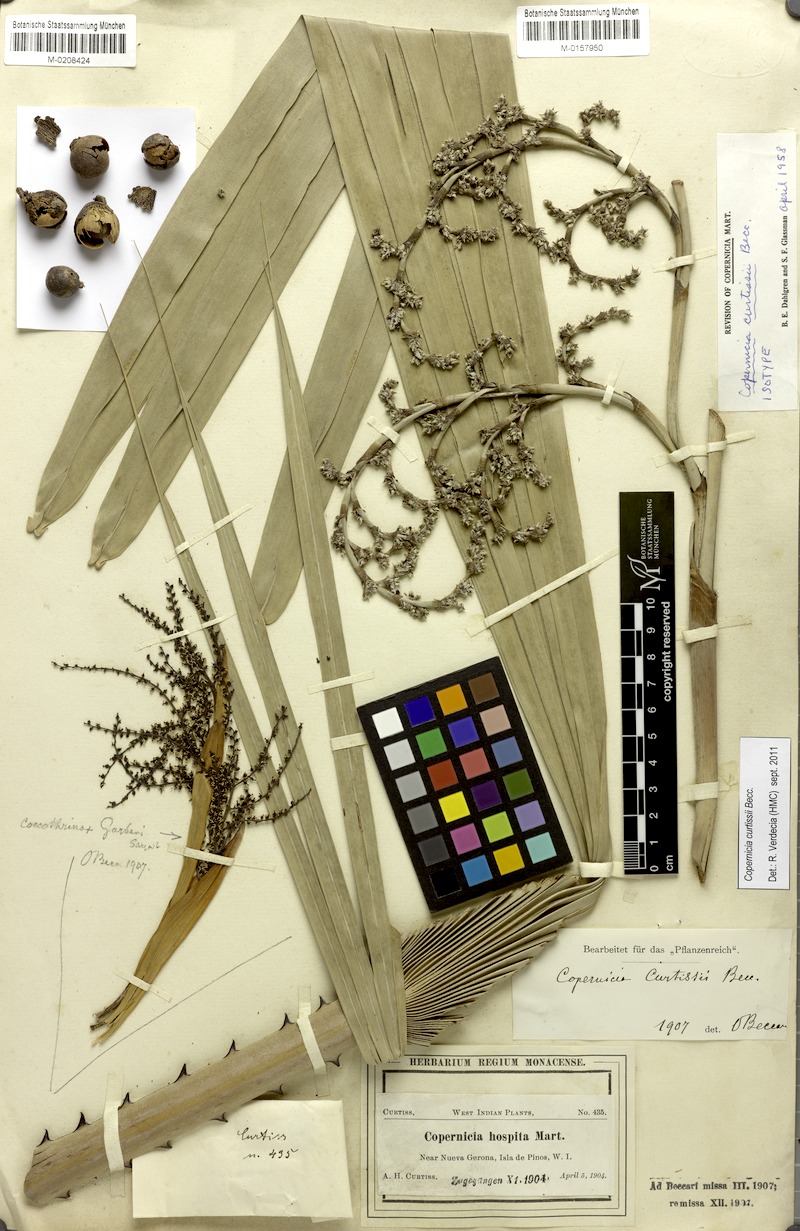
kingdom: Plantae
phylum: Tracheophyta
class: Liliopsida
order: Arecales
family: Arecaceae
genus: Copernicia
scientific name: Copernicia curtissii
